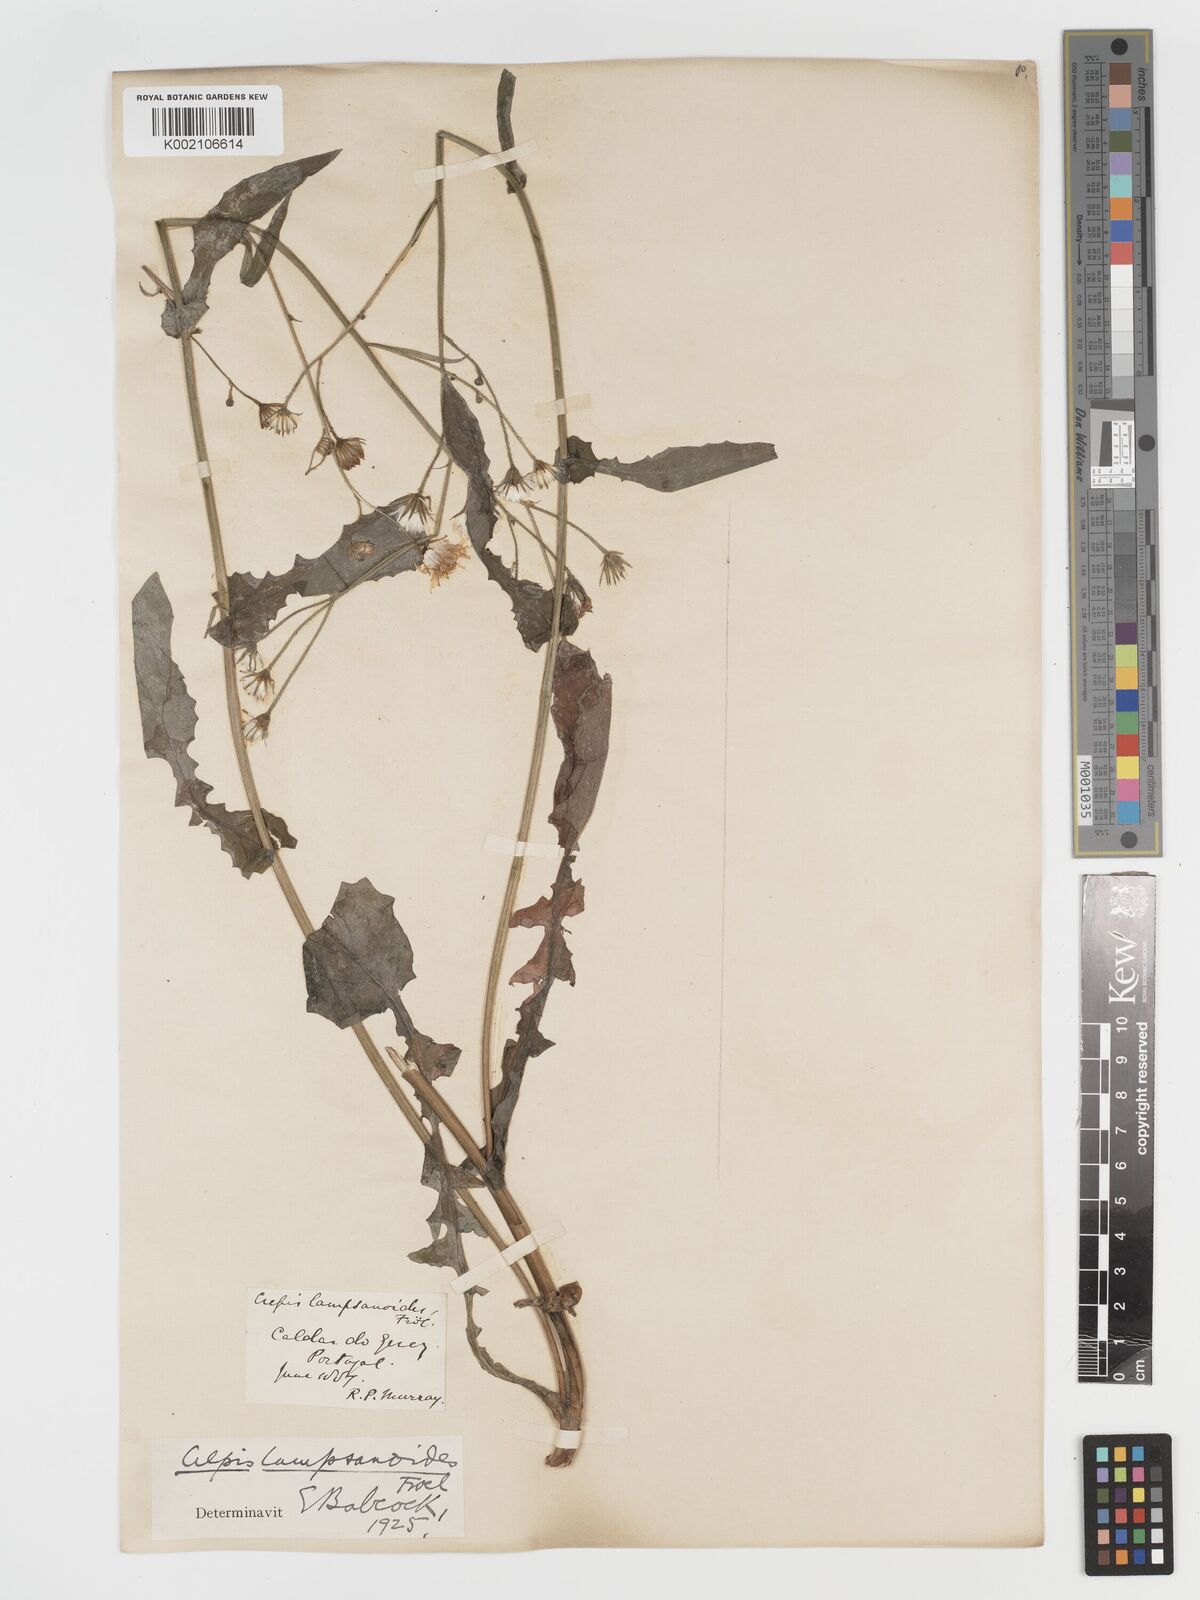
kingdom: Plantae
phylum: Tracheophyta
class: Magnoliopsida
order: Asterales
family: Asteraceae
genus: Crepis
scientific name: Crepis lampsanoides
